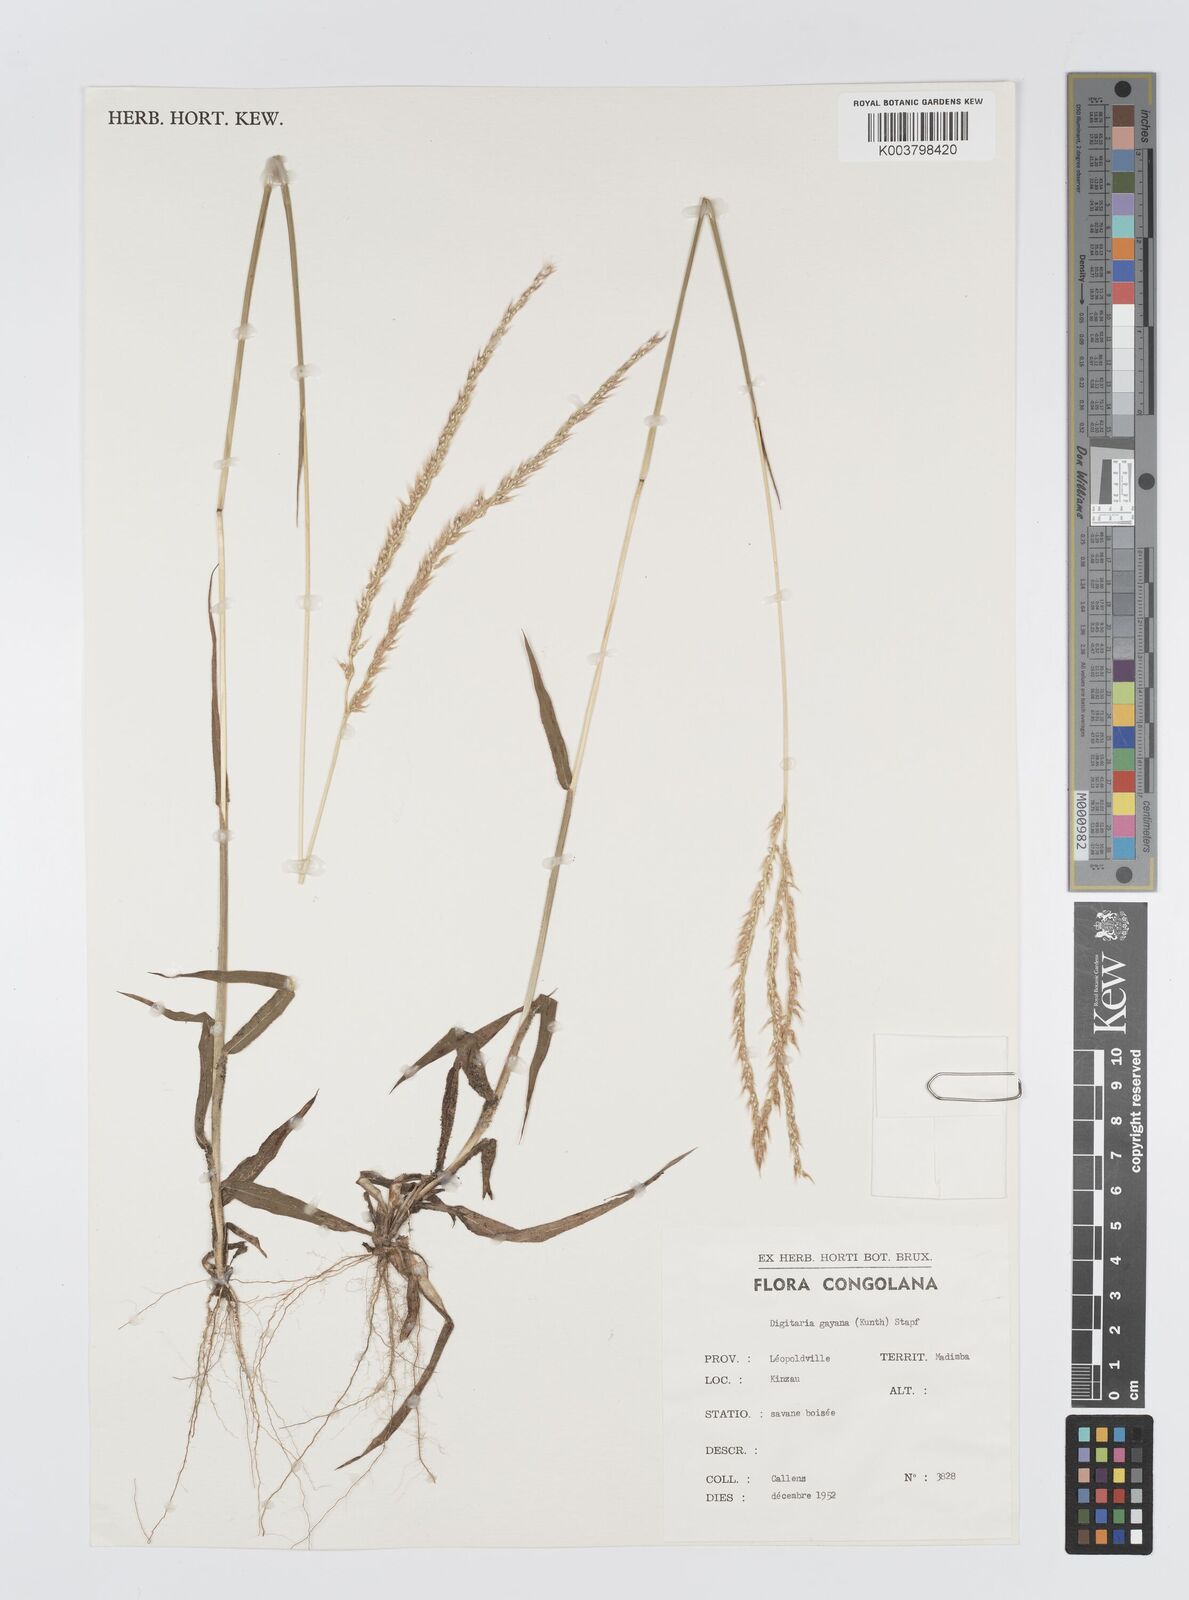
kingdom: Plantae
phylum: Tracheophyta
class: Liliopsida
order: Poales
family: Poaceae
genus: Digitaria
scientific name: Digitaria gayana
